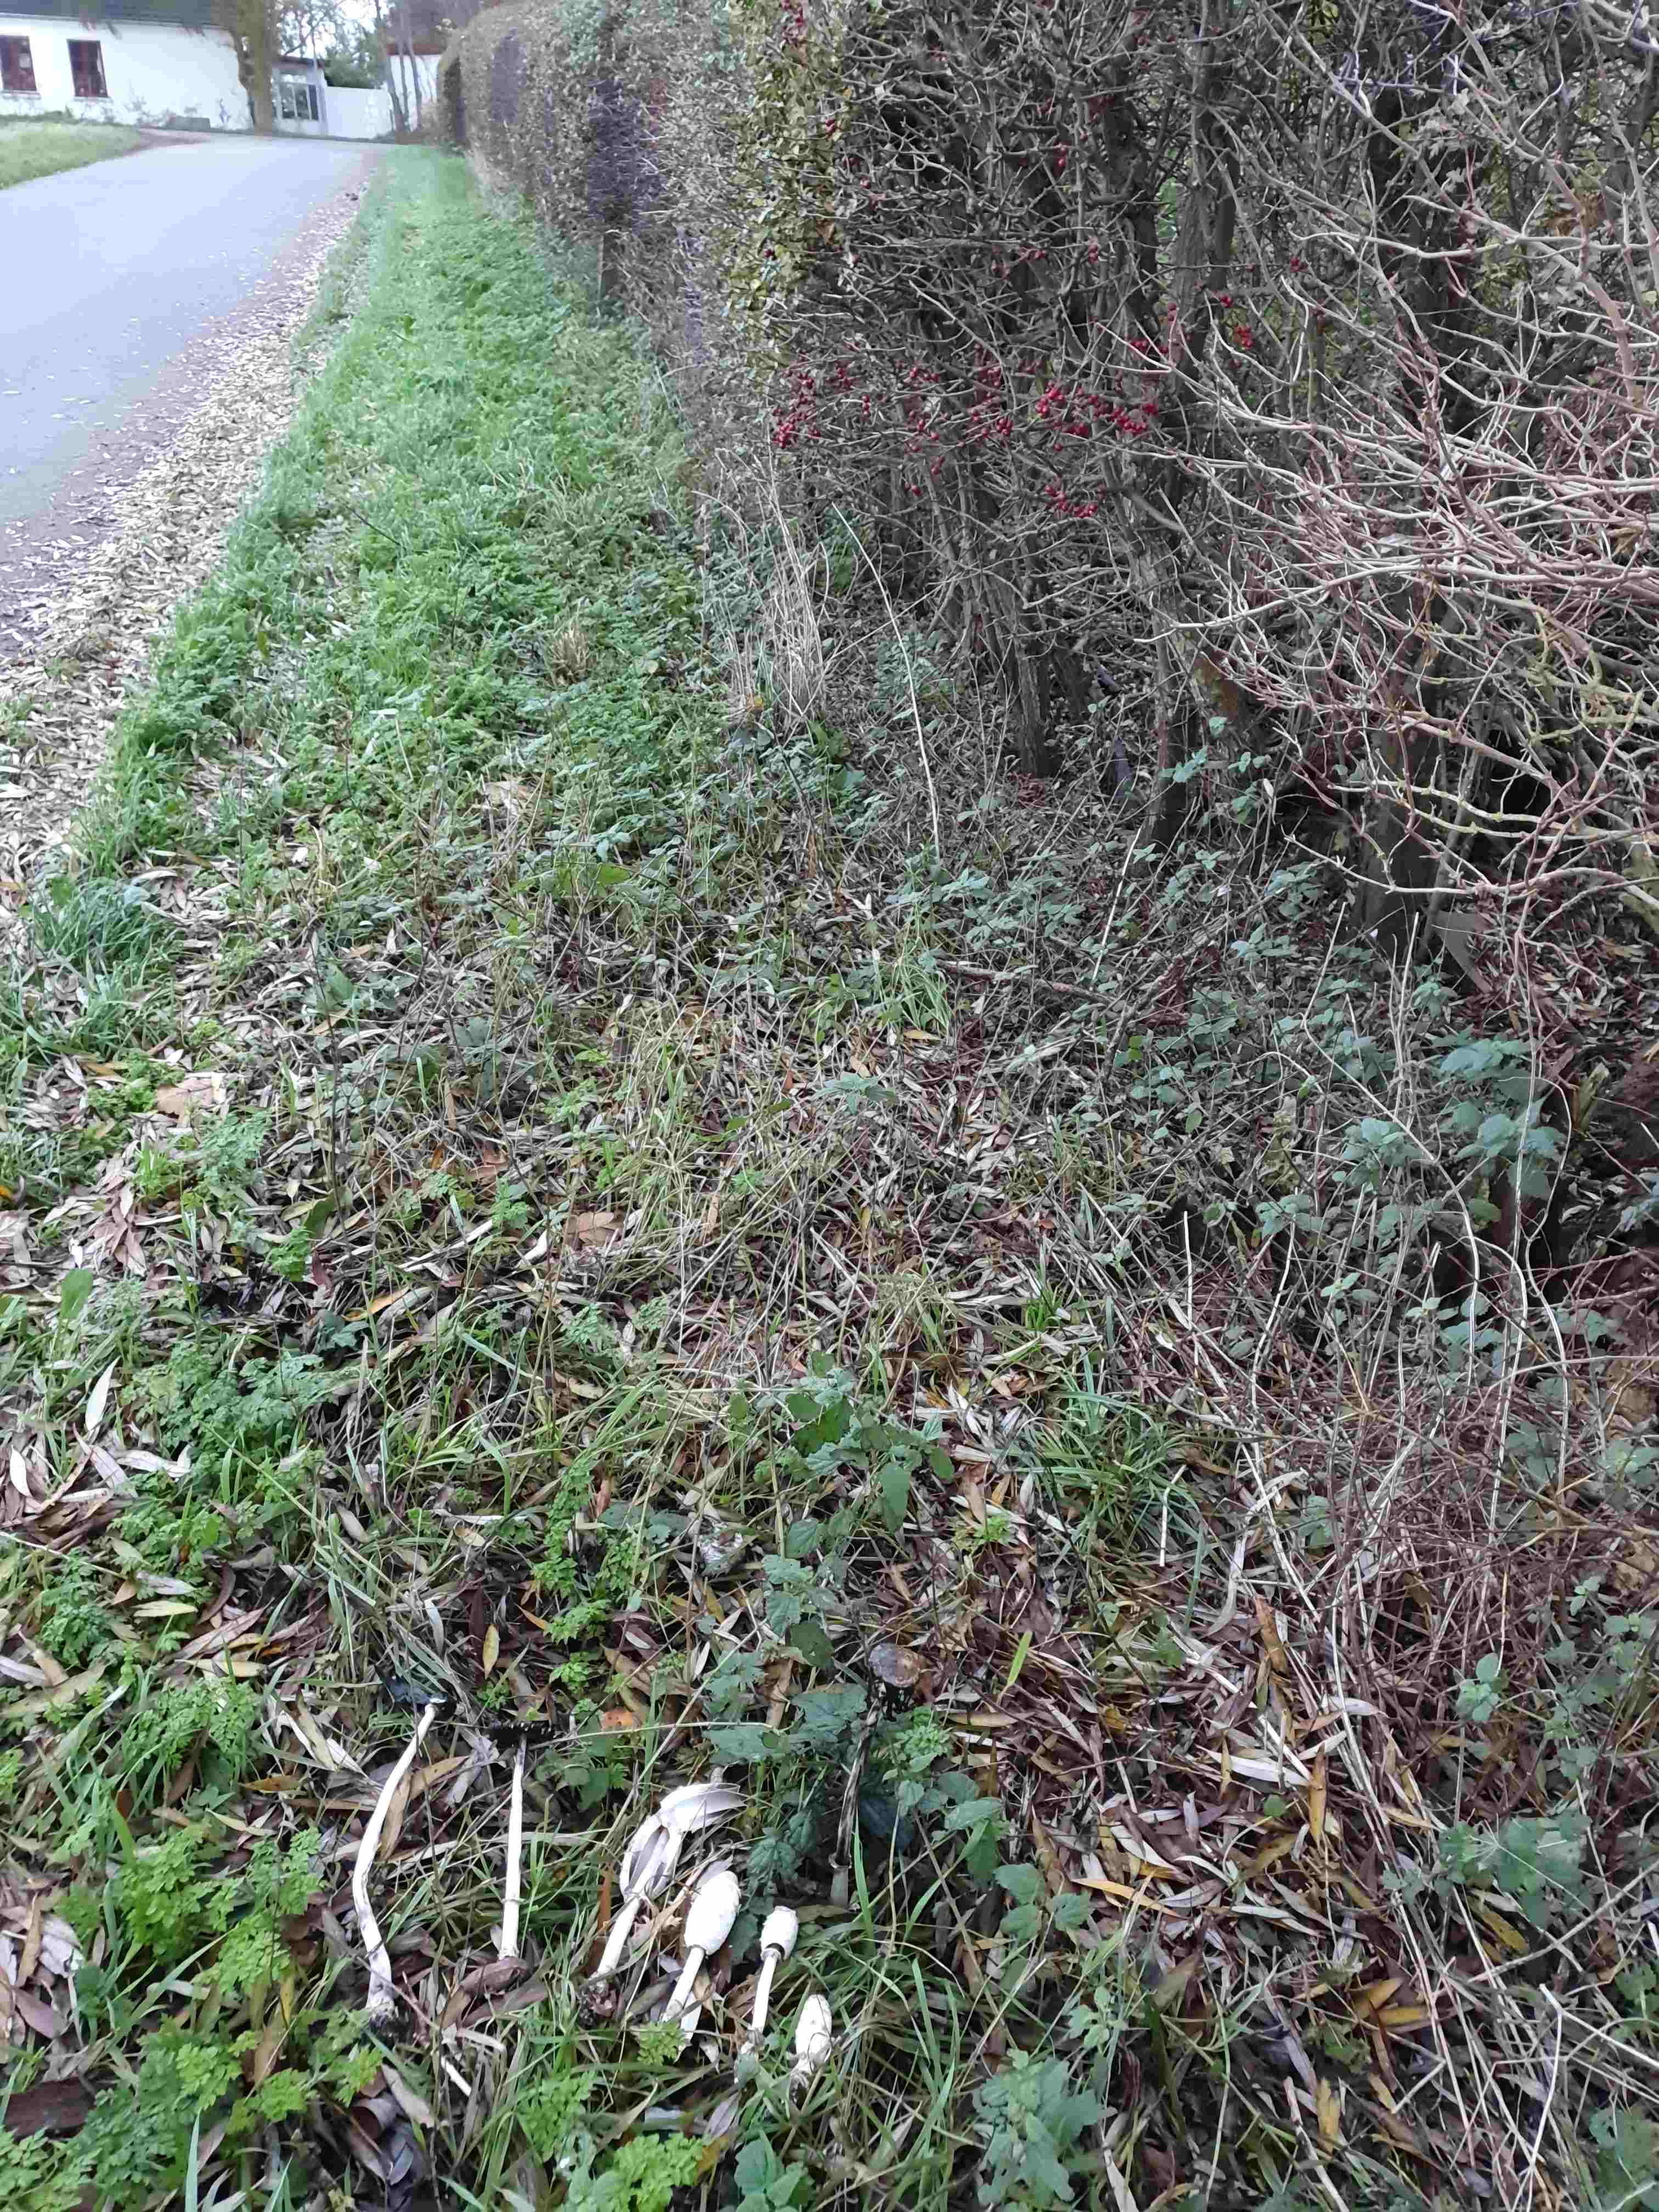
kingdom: Fungi
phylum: Basidiomycota
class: Agaricomycetes
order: Agaricales
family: Agaricaceae
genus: Coprinus
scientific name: Coprinus comatus
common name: stor parykhat
